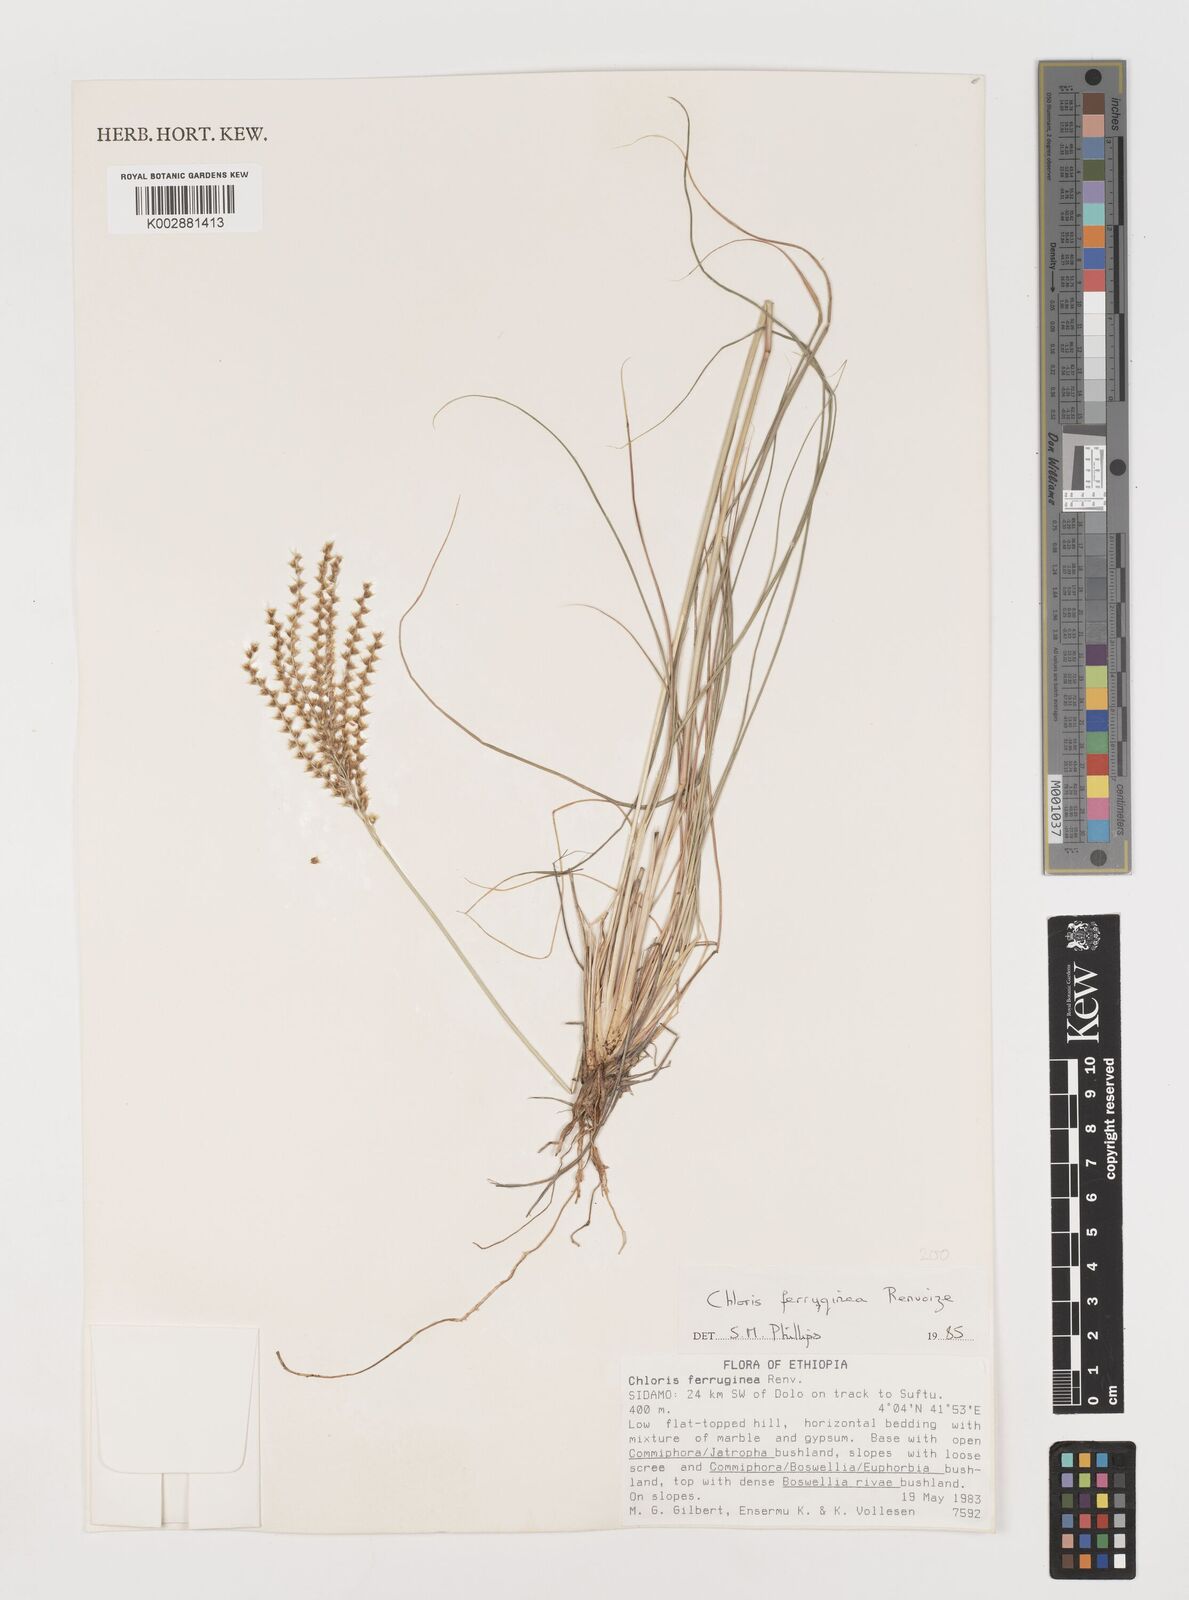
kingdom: Plantae
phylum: Tracheophyta
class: Liliopsida
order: Poales
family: Poaceae
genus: Tetrapogon
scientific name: Tetrapogon ferrugineus
